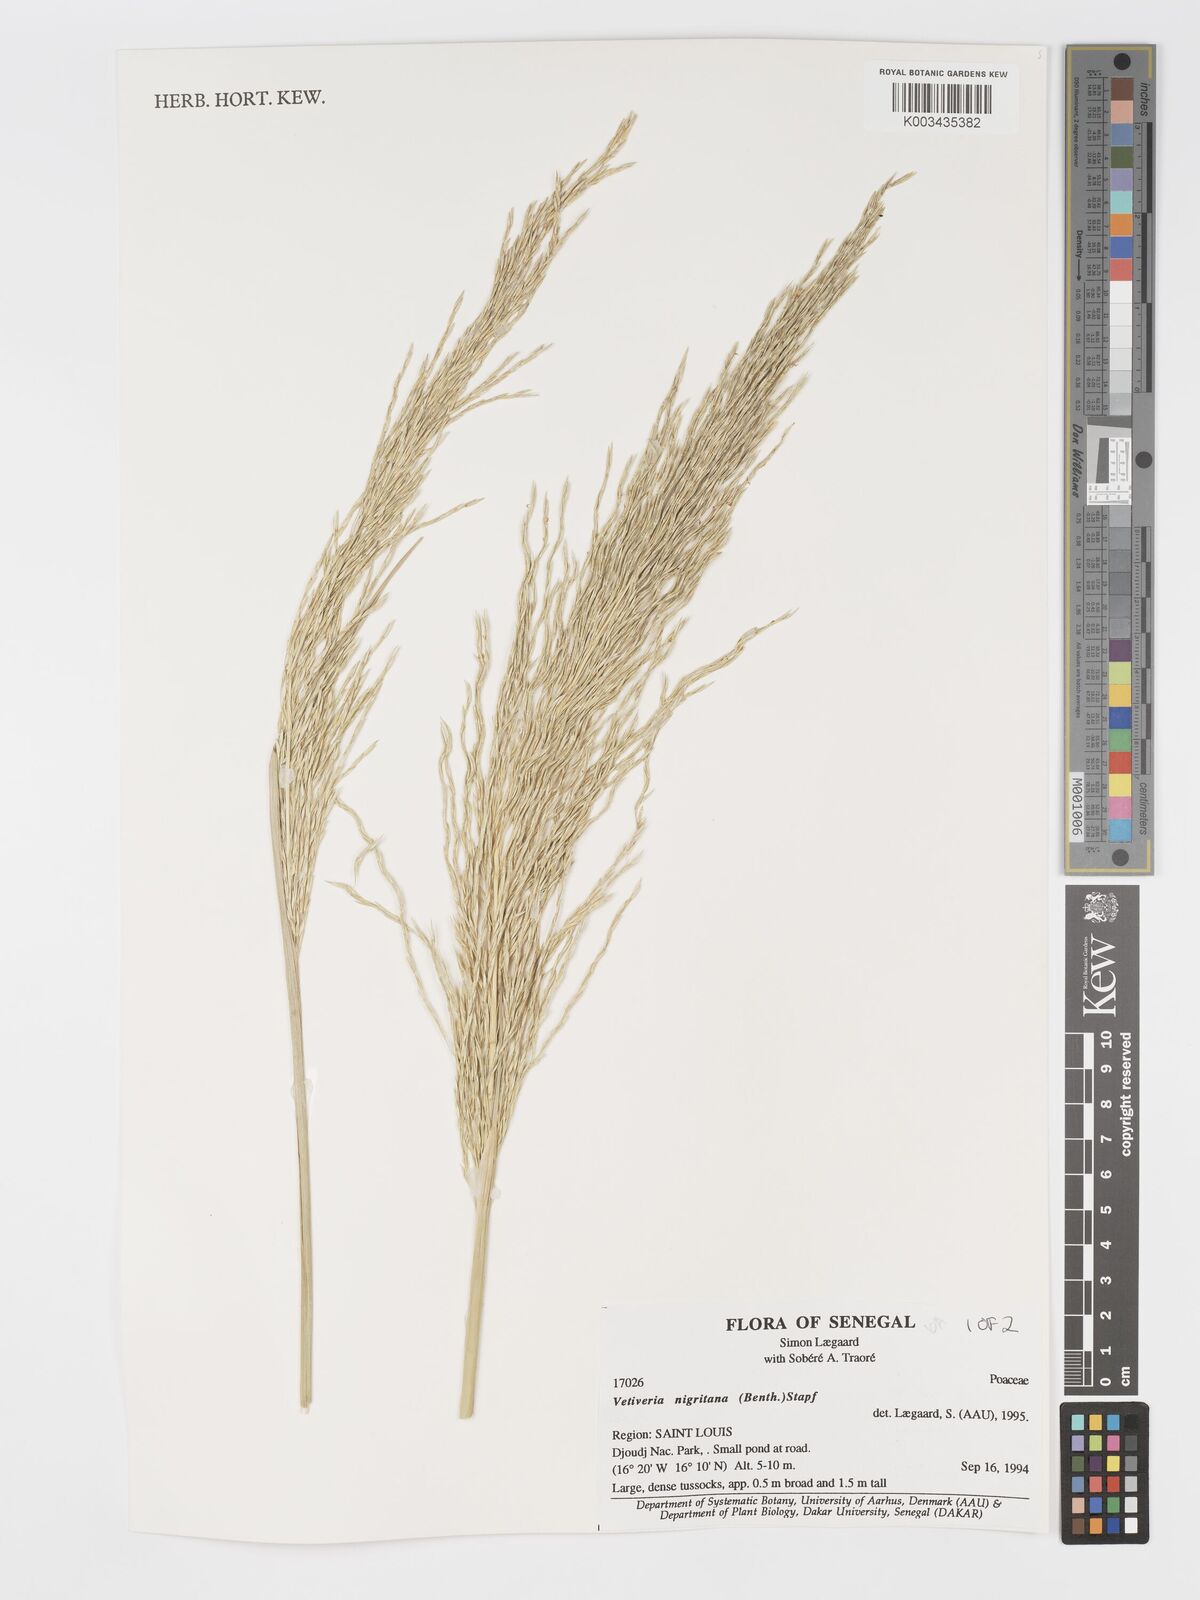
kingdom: Plantae
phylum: Tracheophyta
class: Liliopsida
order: Poales
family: Poaceae
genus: Chrysopogon
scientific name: Chrysopogon nigritanus
